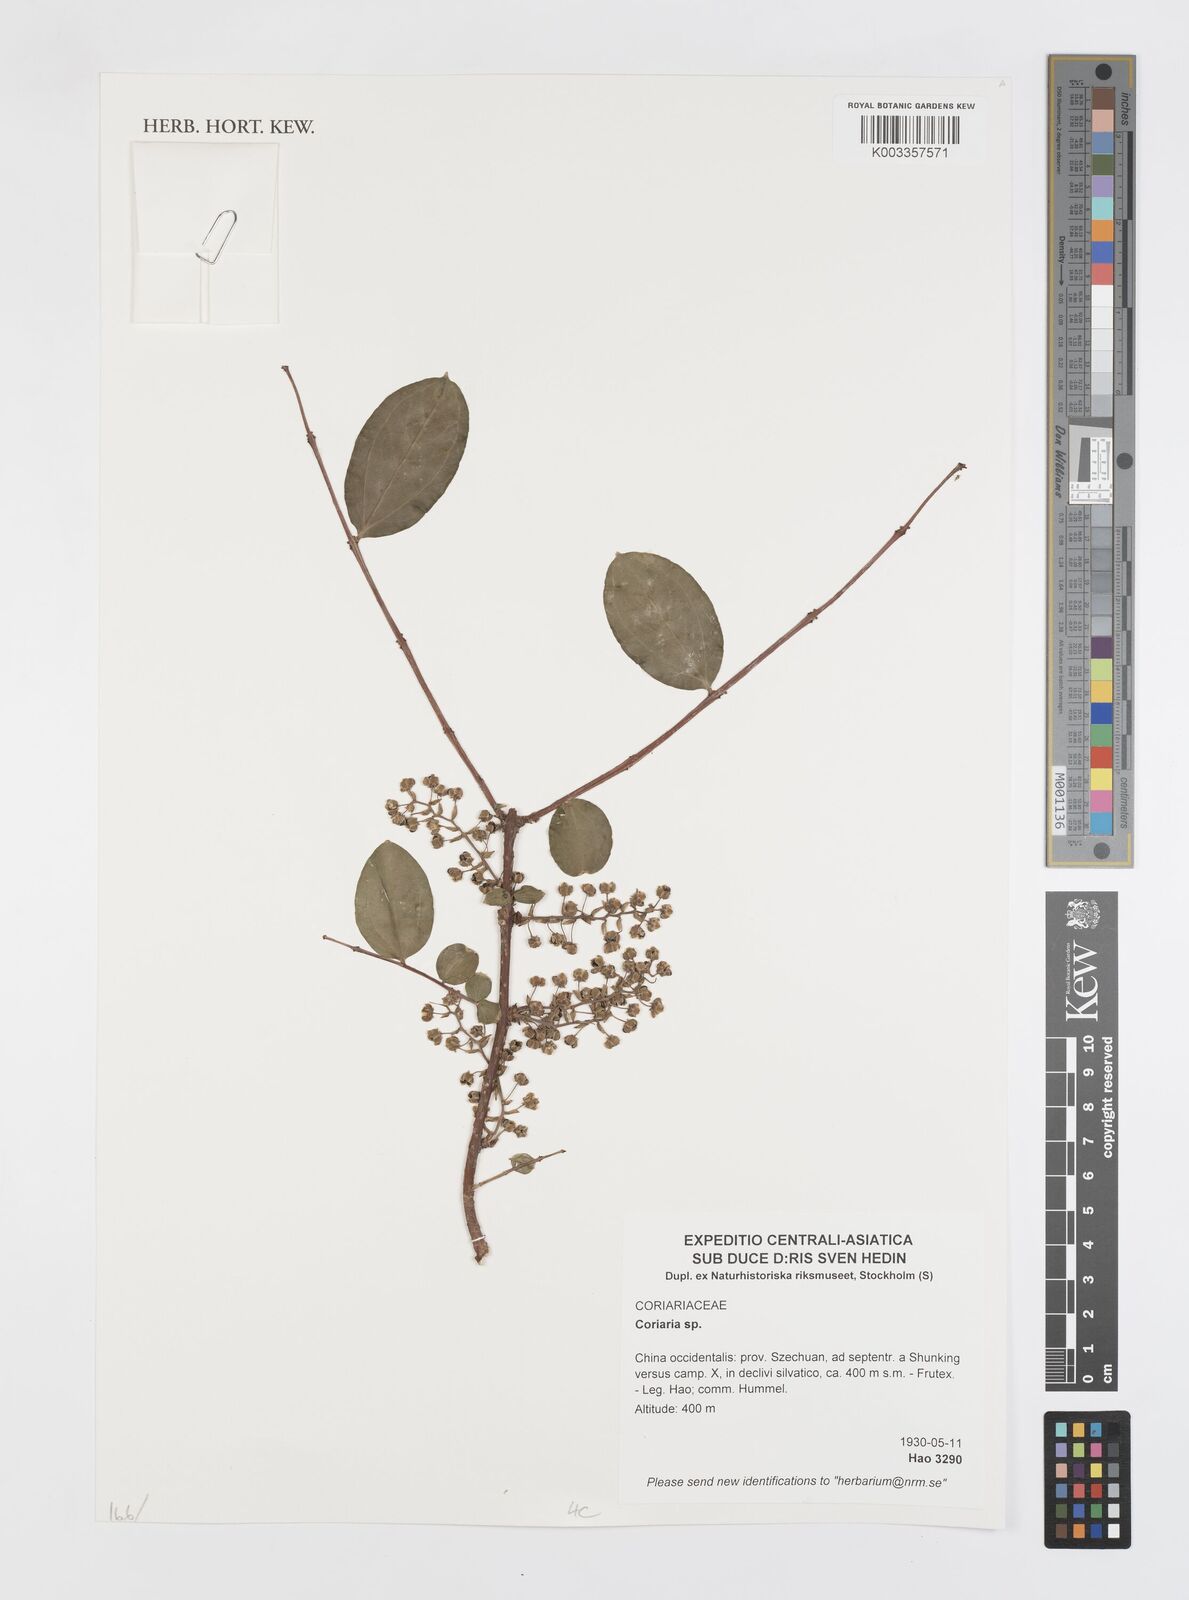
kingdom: Plantae
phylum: Tracheophyta
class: Magnoliopsida
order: Cucurbitales
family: Coriariaceae
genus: Coriaria
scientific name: Coriaria
